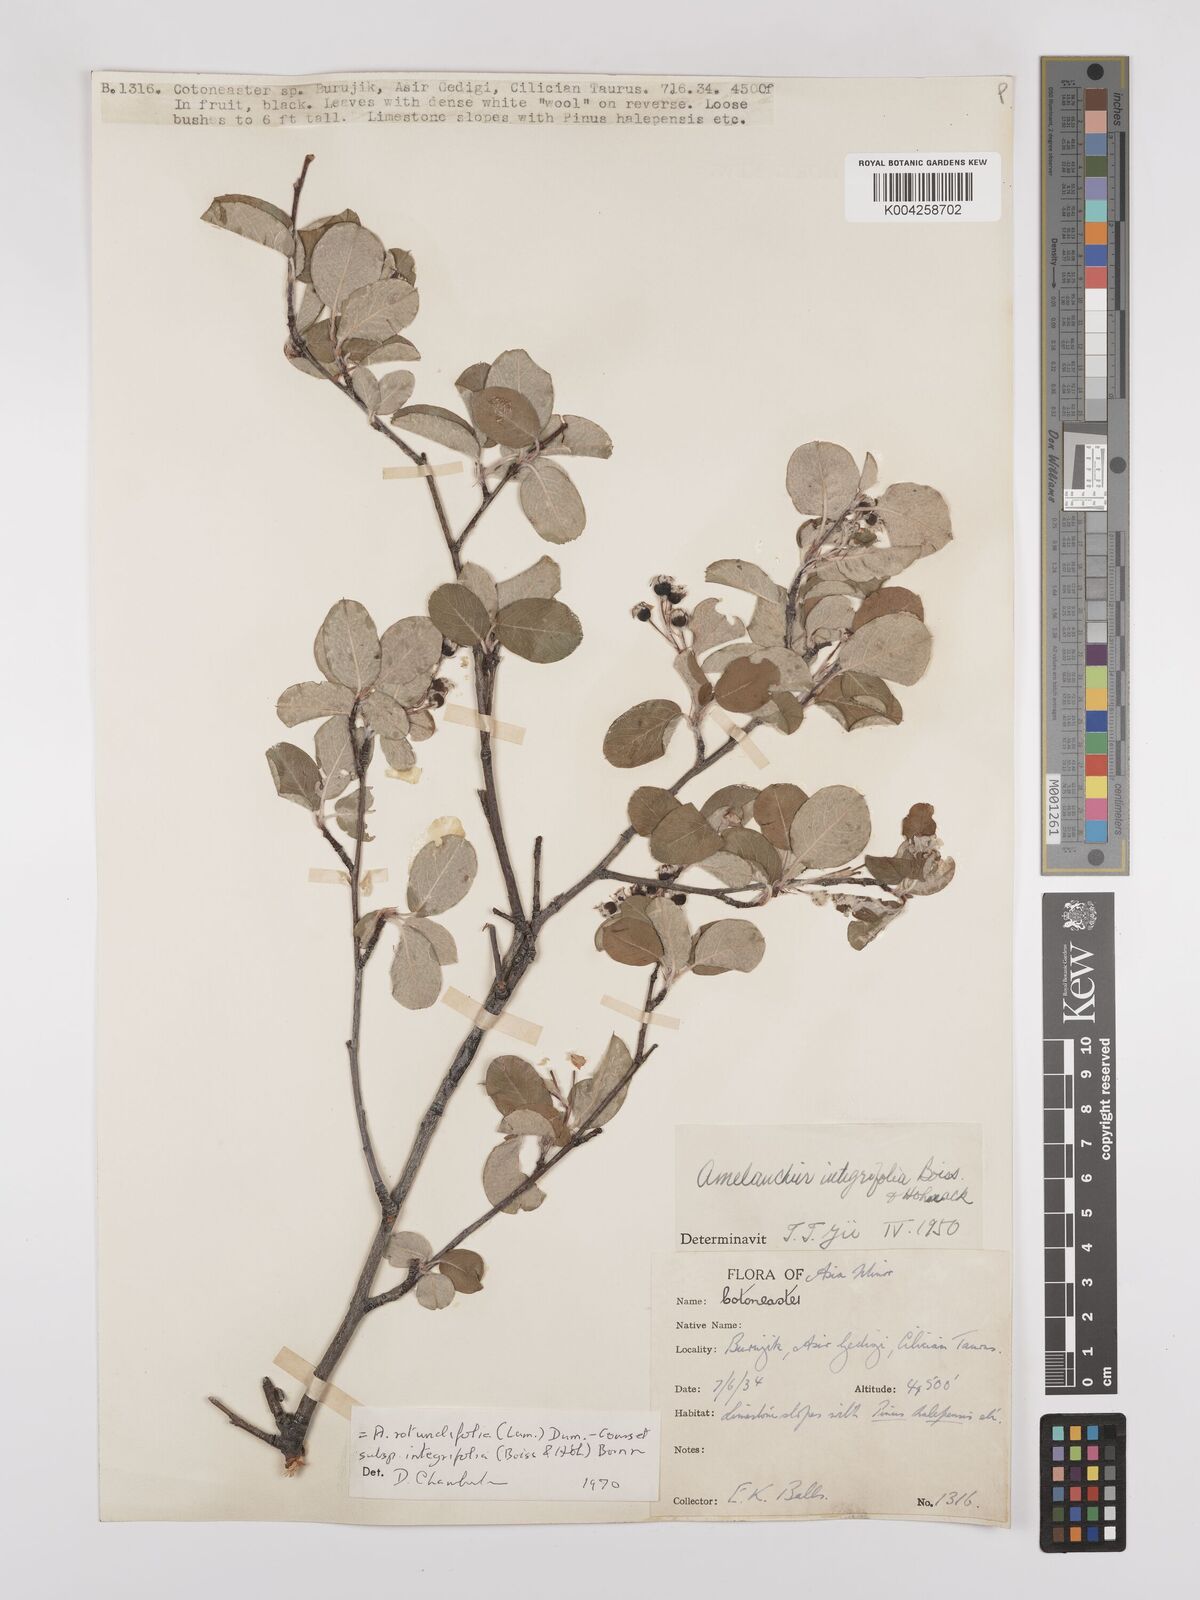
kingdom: Plantae
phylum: Tracheophyta
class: Magnoliopsida
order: Rosales
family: Rosaceae
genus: Amelanchier
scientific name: Amelanchier ovalis
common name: Serviceberry
